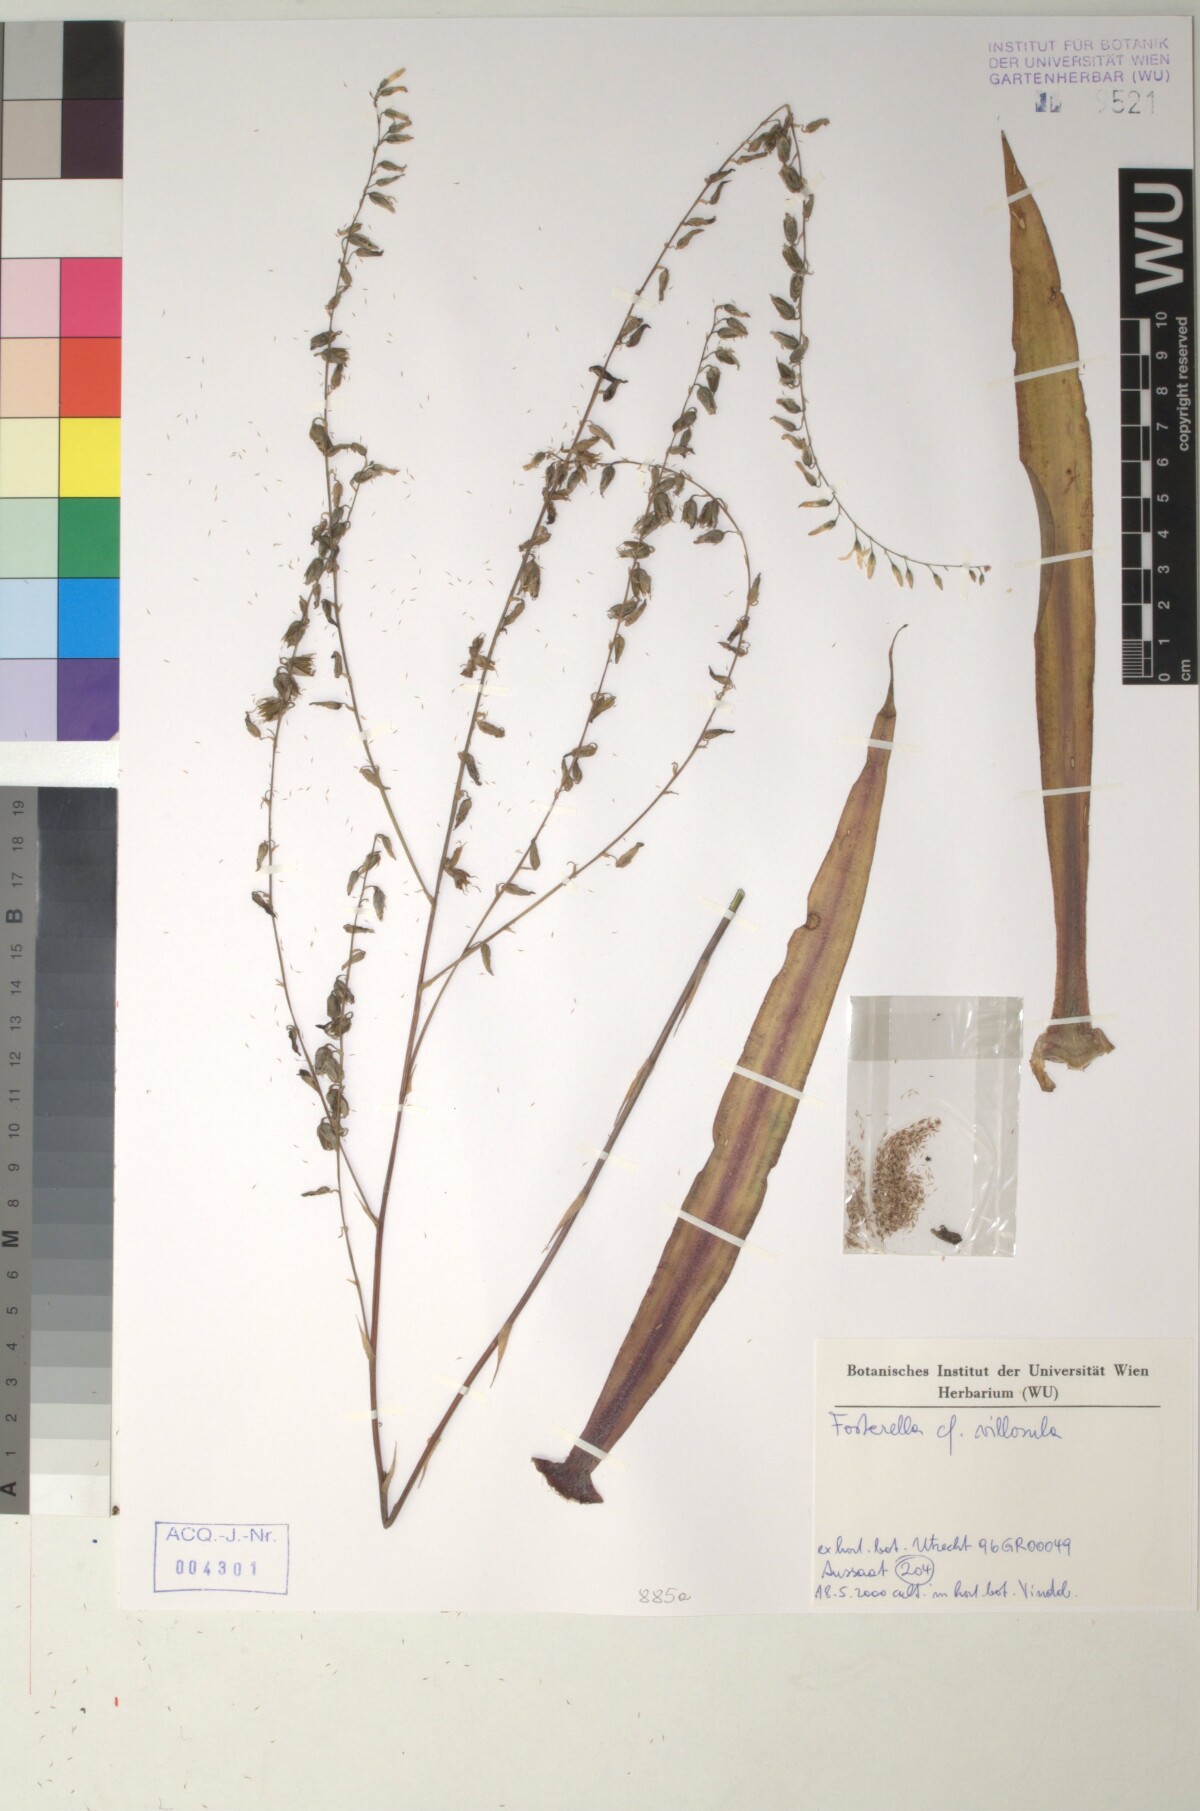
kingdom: Plantae
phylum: Tracheophyta
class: Liliopsida
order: Poales
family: Bromeliaceae
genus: Fosterella
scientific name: Fosterella penduliflora
